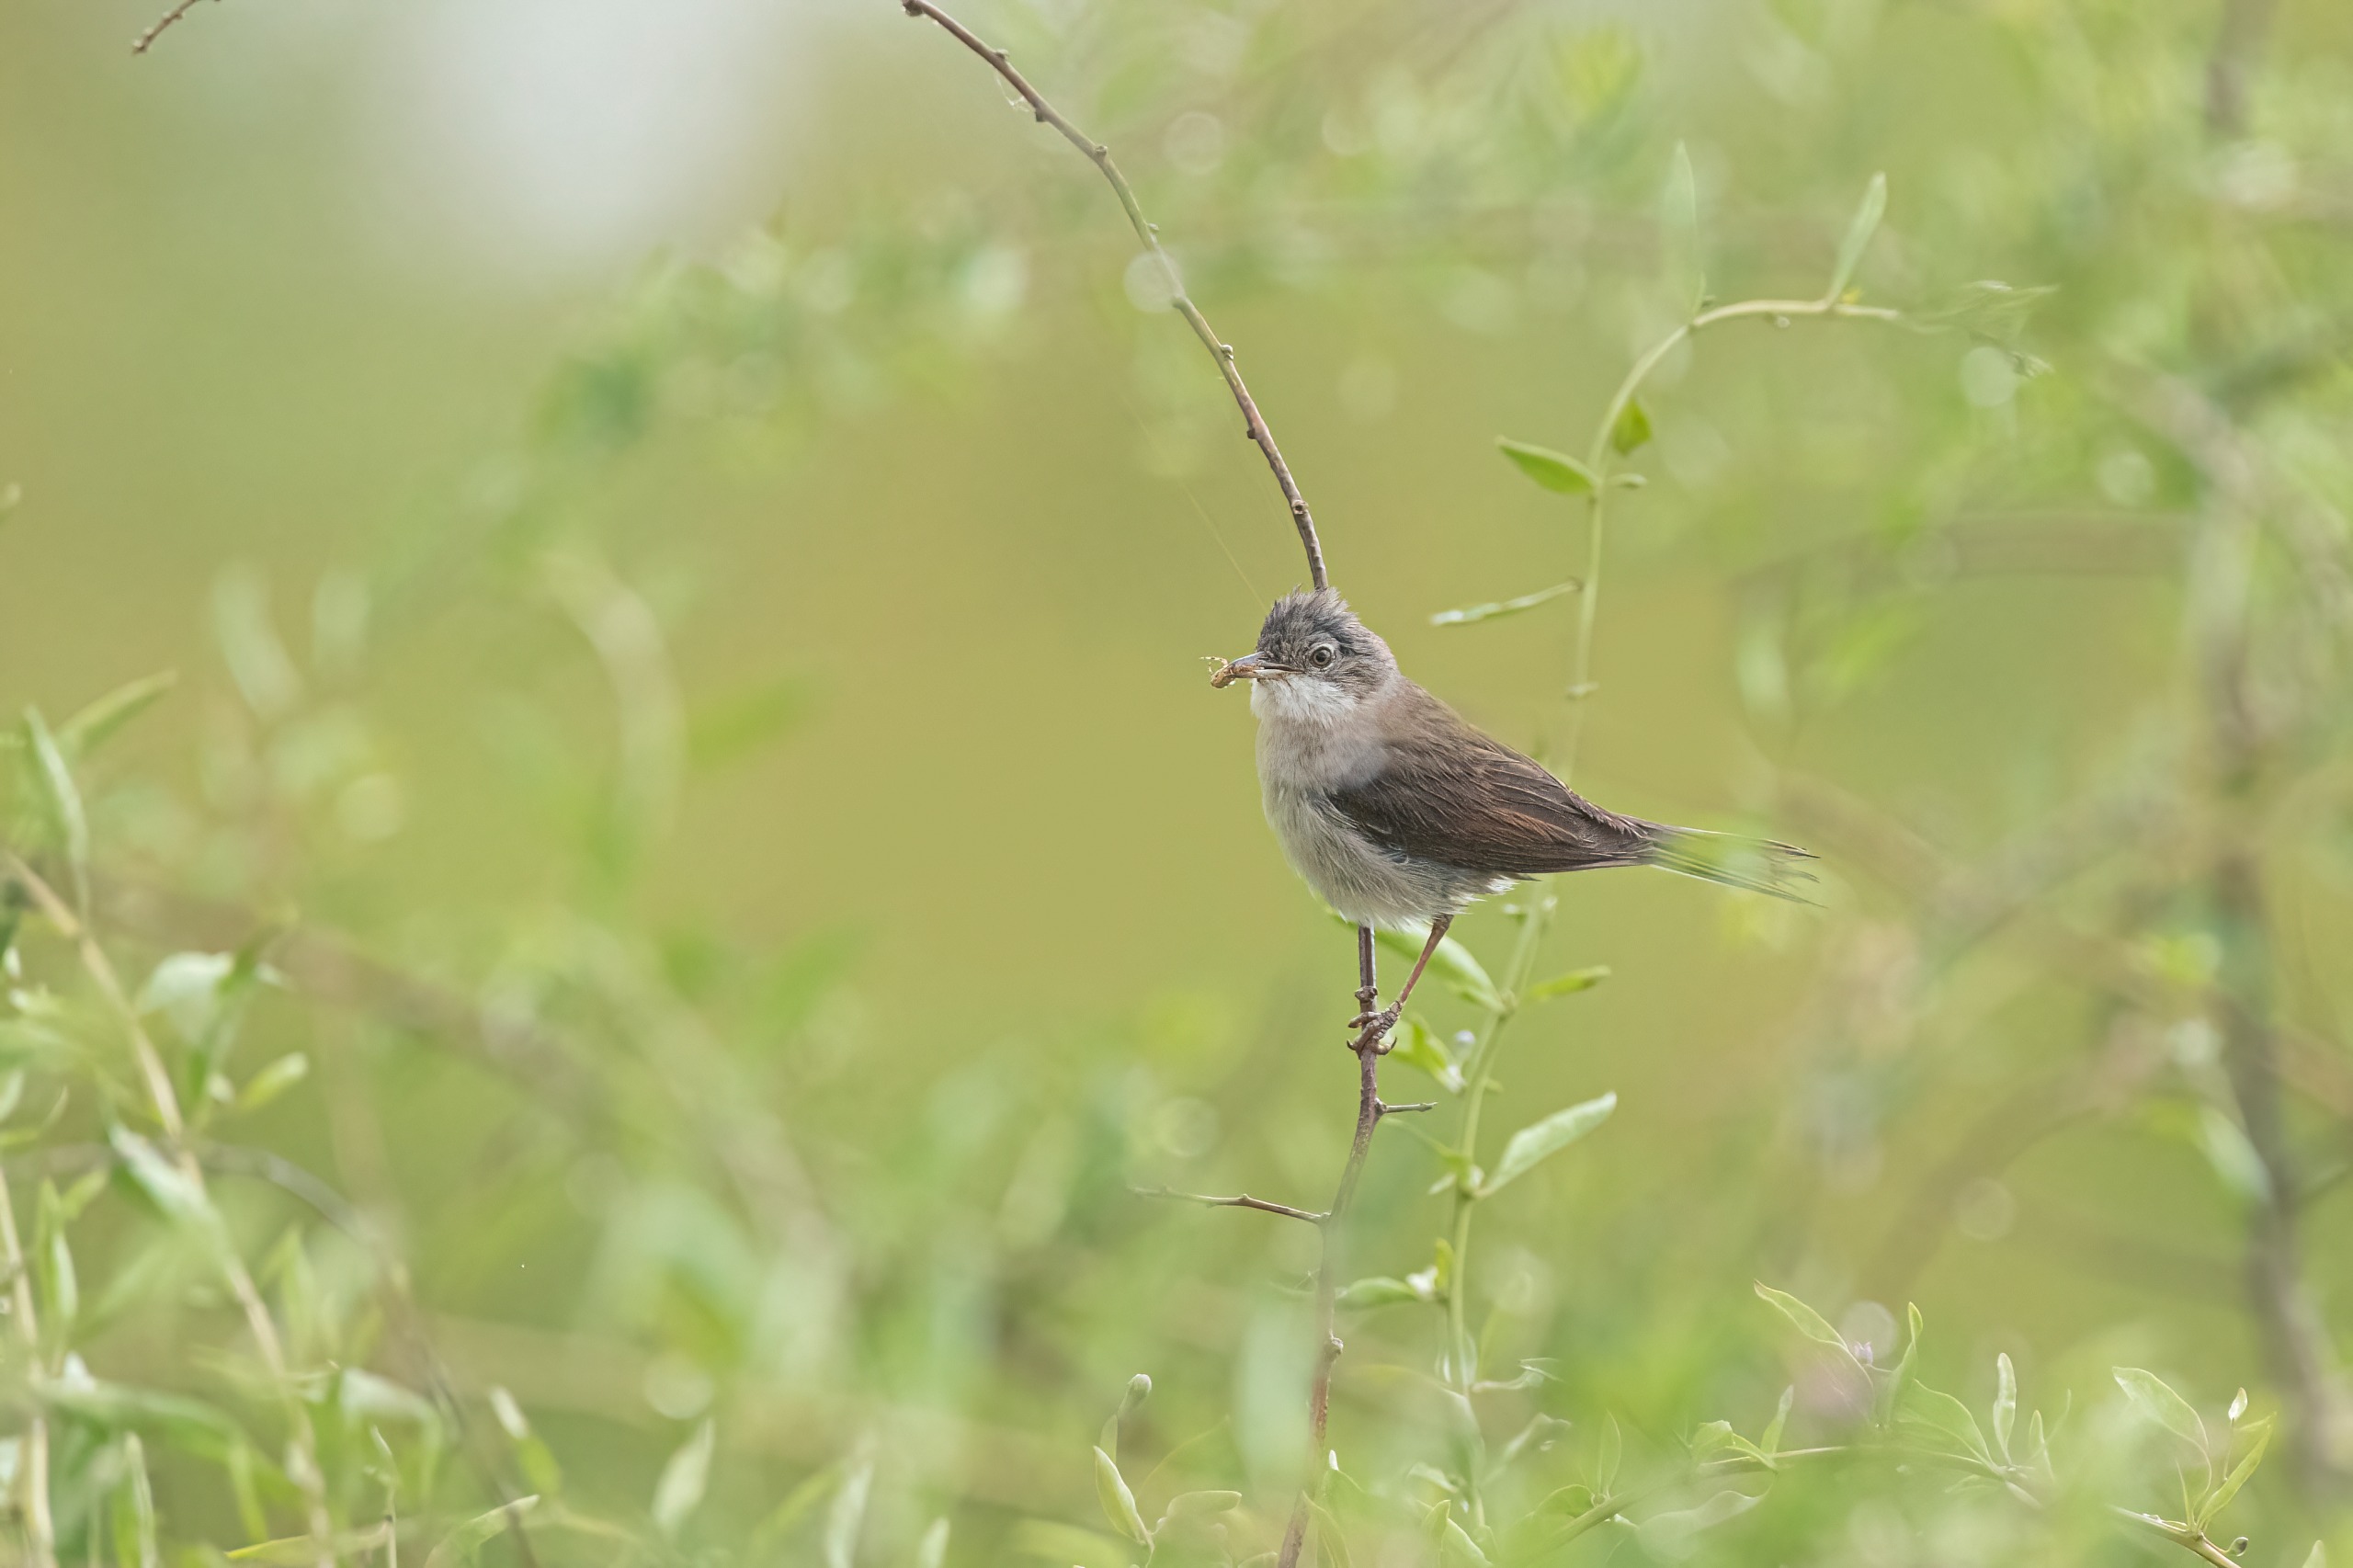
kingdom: Animalia
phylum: Chordata
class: Aves
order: Passeriformes
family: Sylviidae
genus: Sylvia
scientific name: Sylvia communis
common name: Tornsanger
